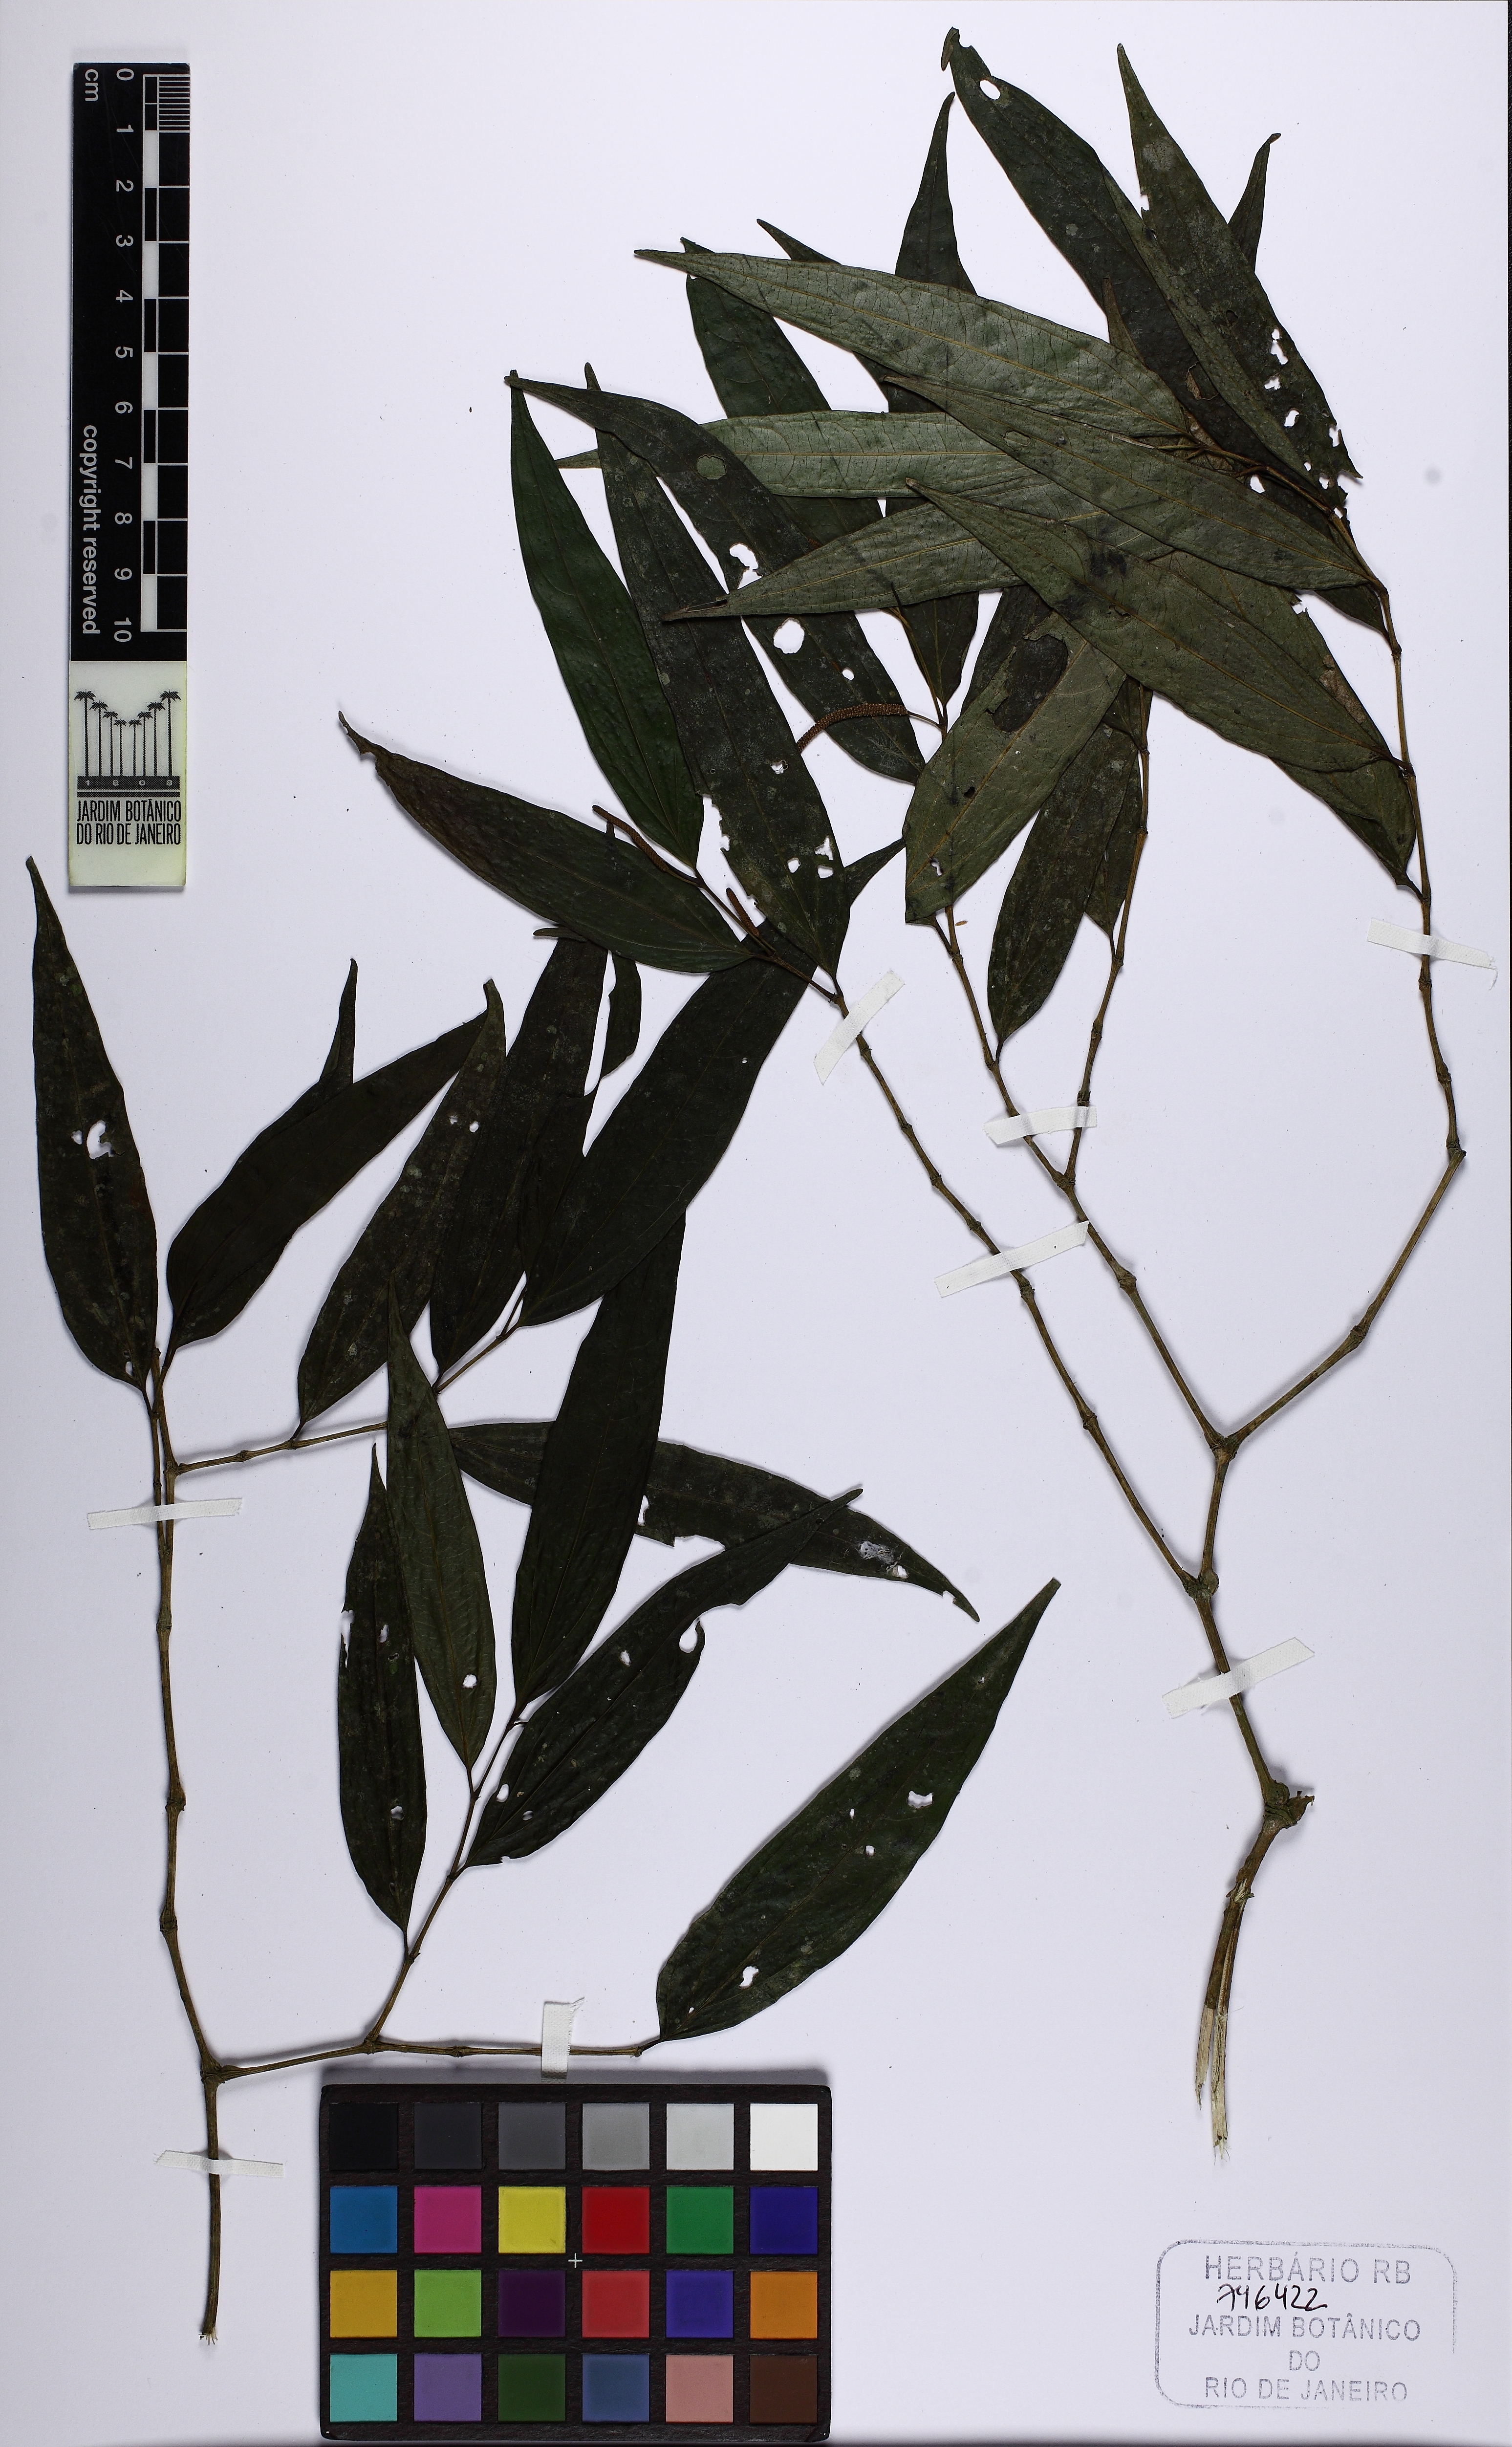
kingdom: Plantae
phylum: Tracheophyta
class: Magnoliopsida
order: Piperales
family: Piperaceae
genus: Piper
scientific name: Piper bradei
